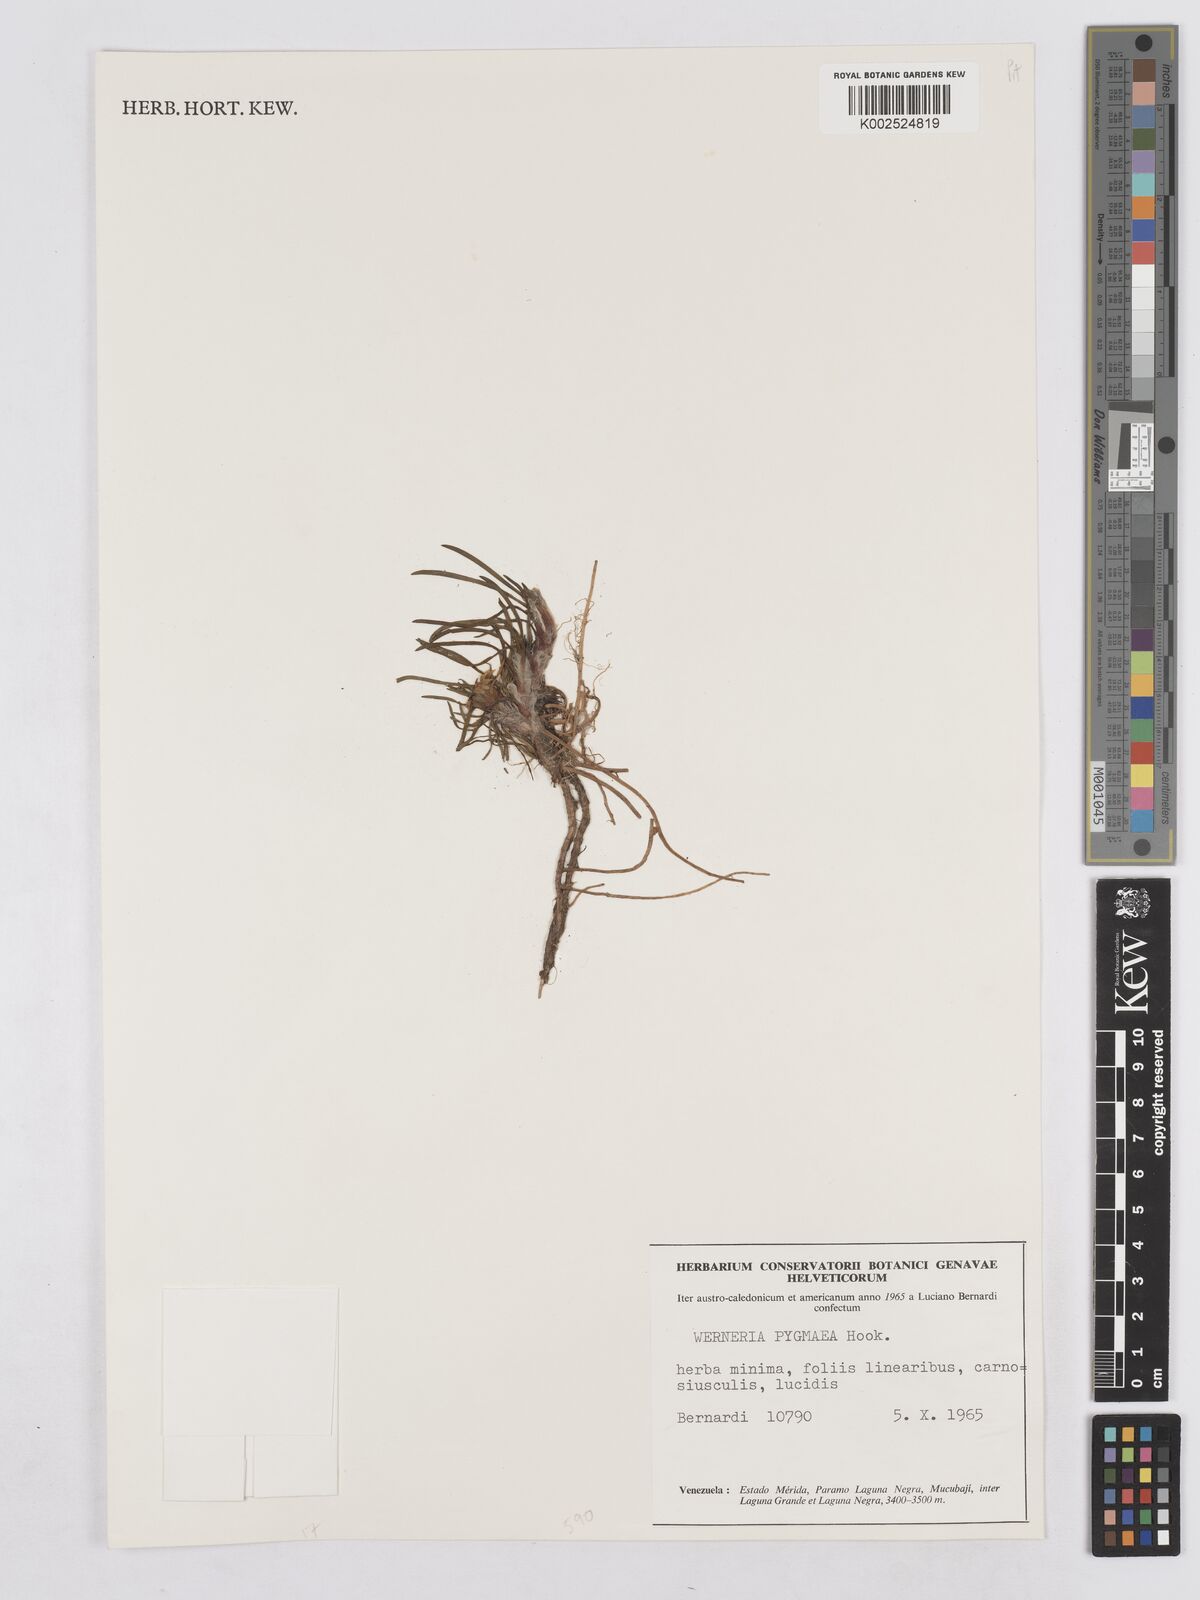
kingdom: Plantae
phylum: Tracheophyta
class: Magnoliopsida
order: Asterales
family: Asteraceae
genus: Rockhausenia
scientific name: Rockhausenia pygmaea
